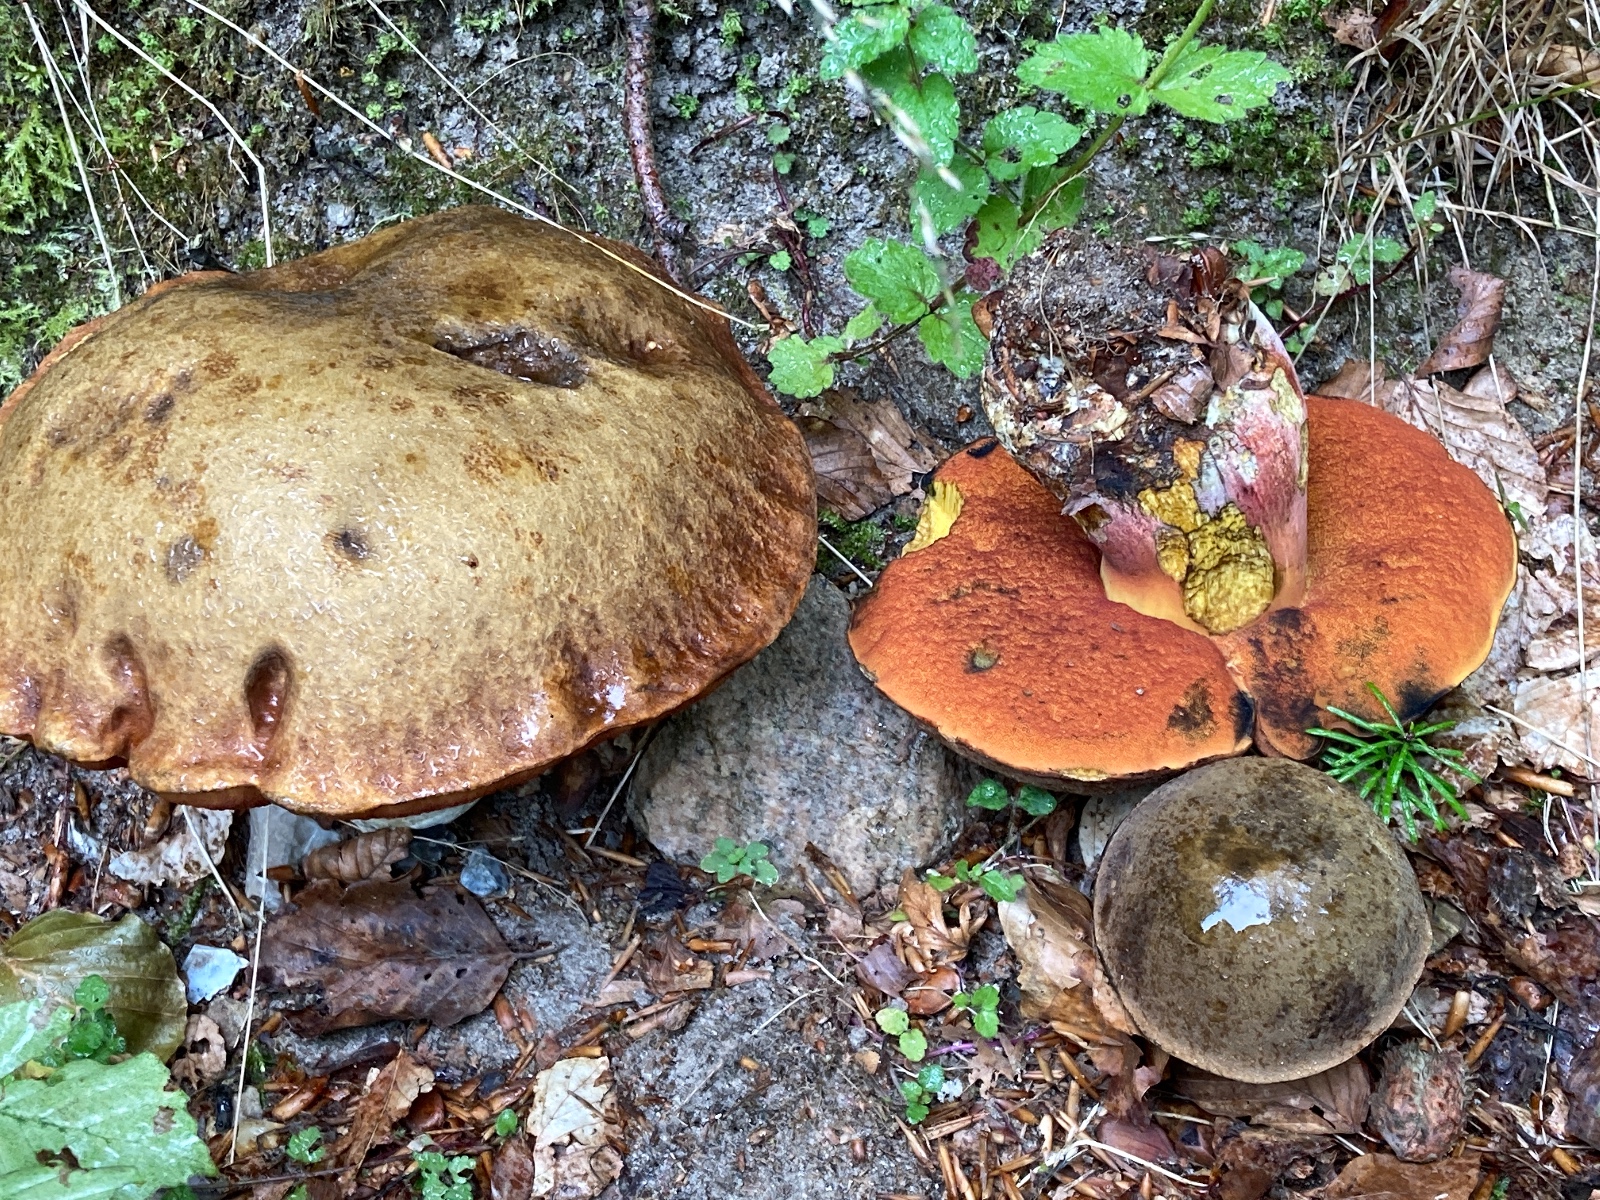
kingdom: Fungi
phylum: Basidiomycota
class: Agaricomycetes
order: Boletales
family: Boletaceae
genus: Neoboletus
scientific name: Neoboletus erythropus
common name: punktstokket indigorørhat
